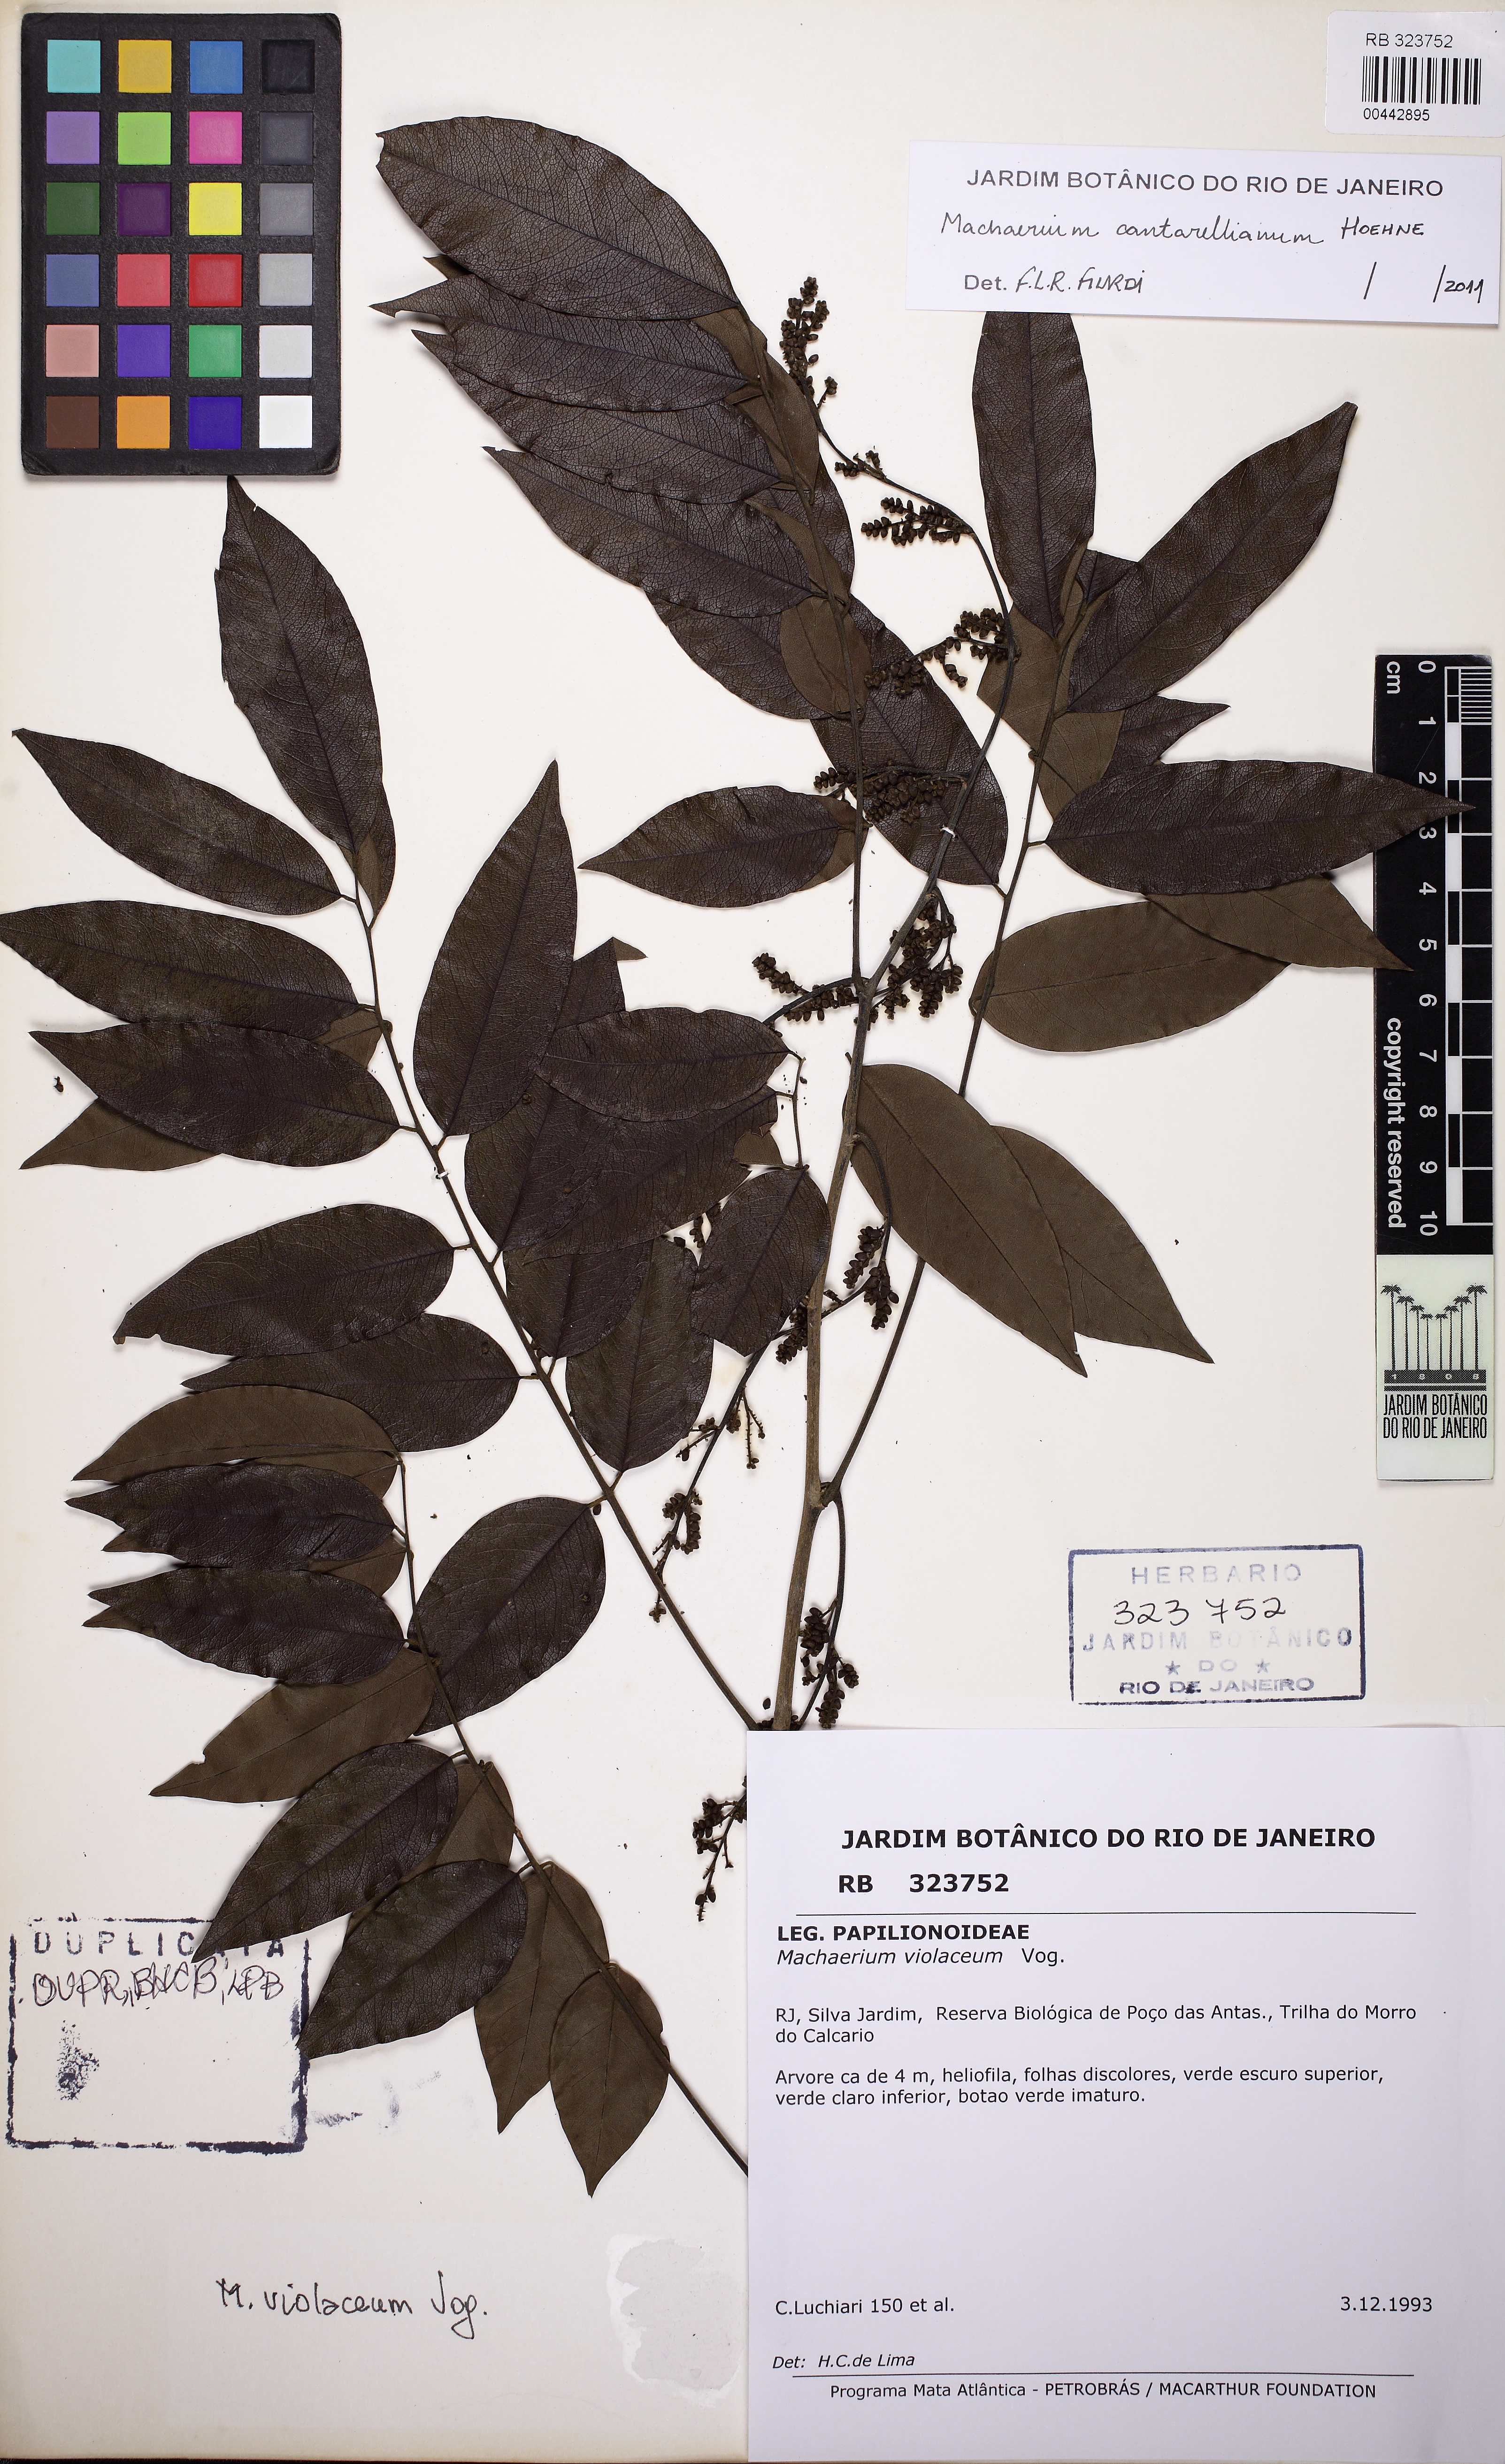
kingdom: Plantae
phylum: Tracheophyta
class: Magnoliopsida
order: Fabales
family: Fabaceae
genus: Machaerium
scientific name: Machaerium cantarellianum
